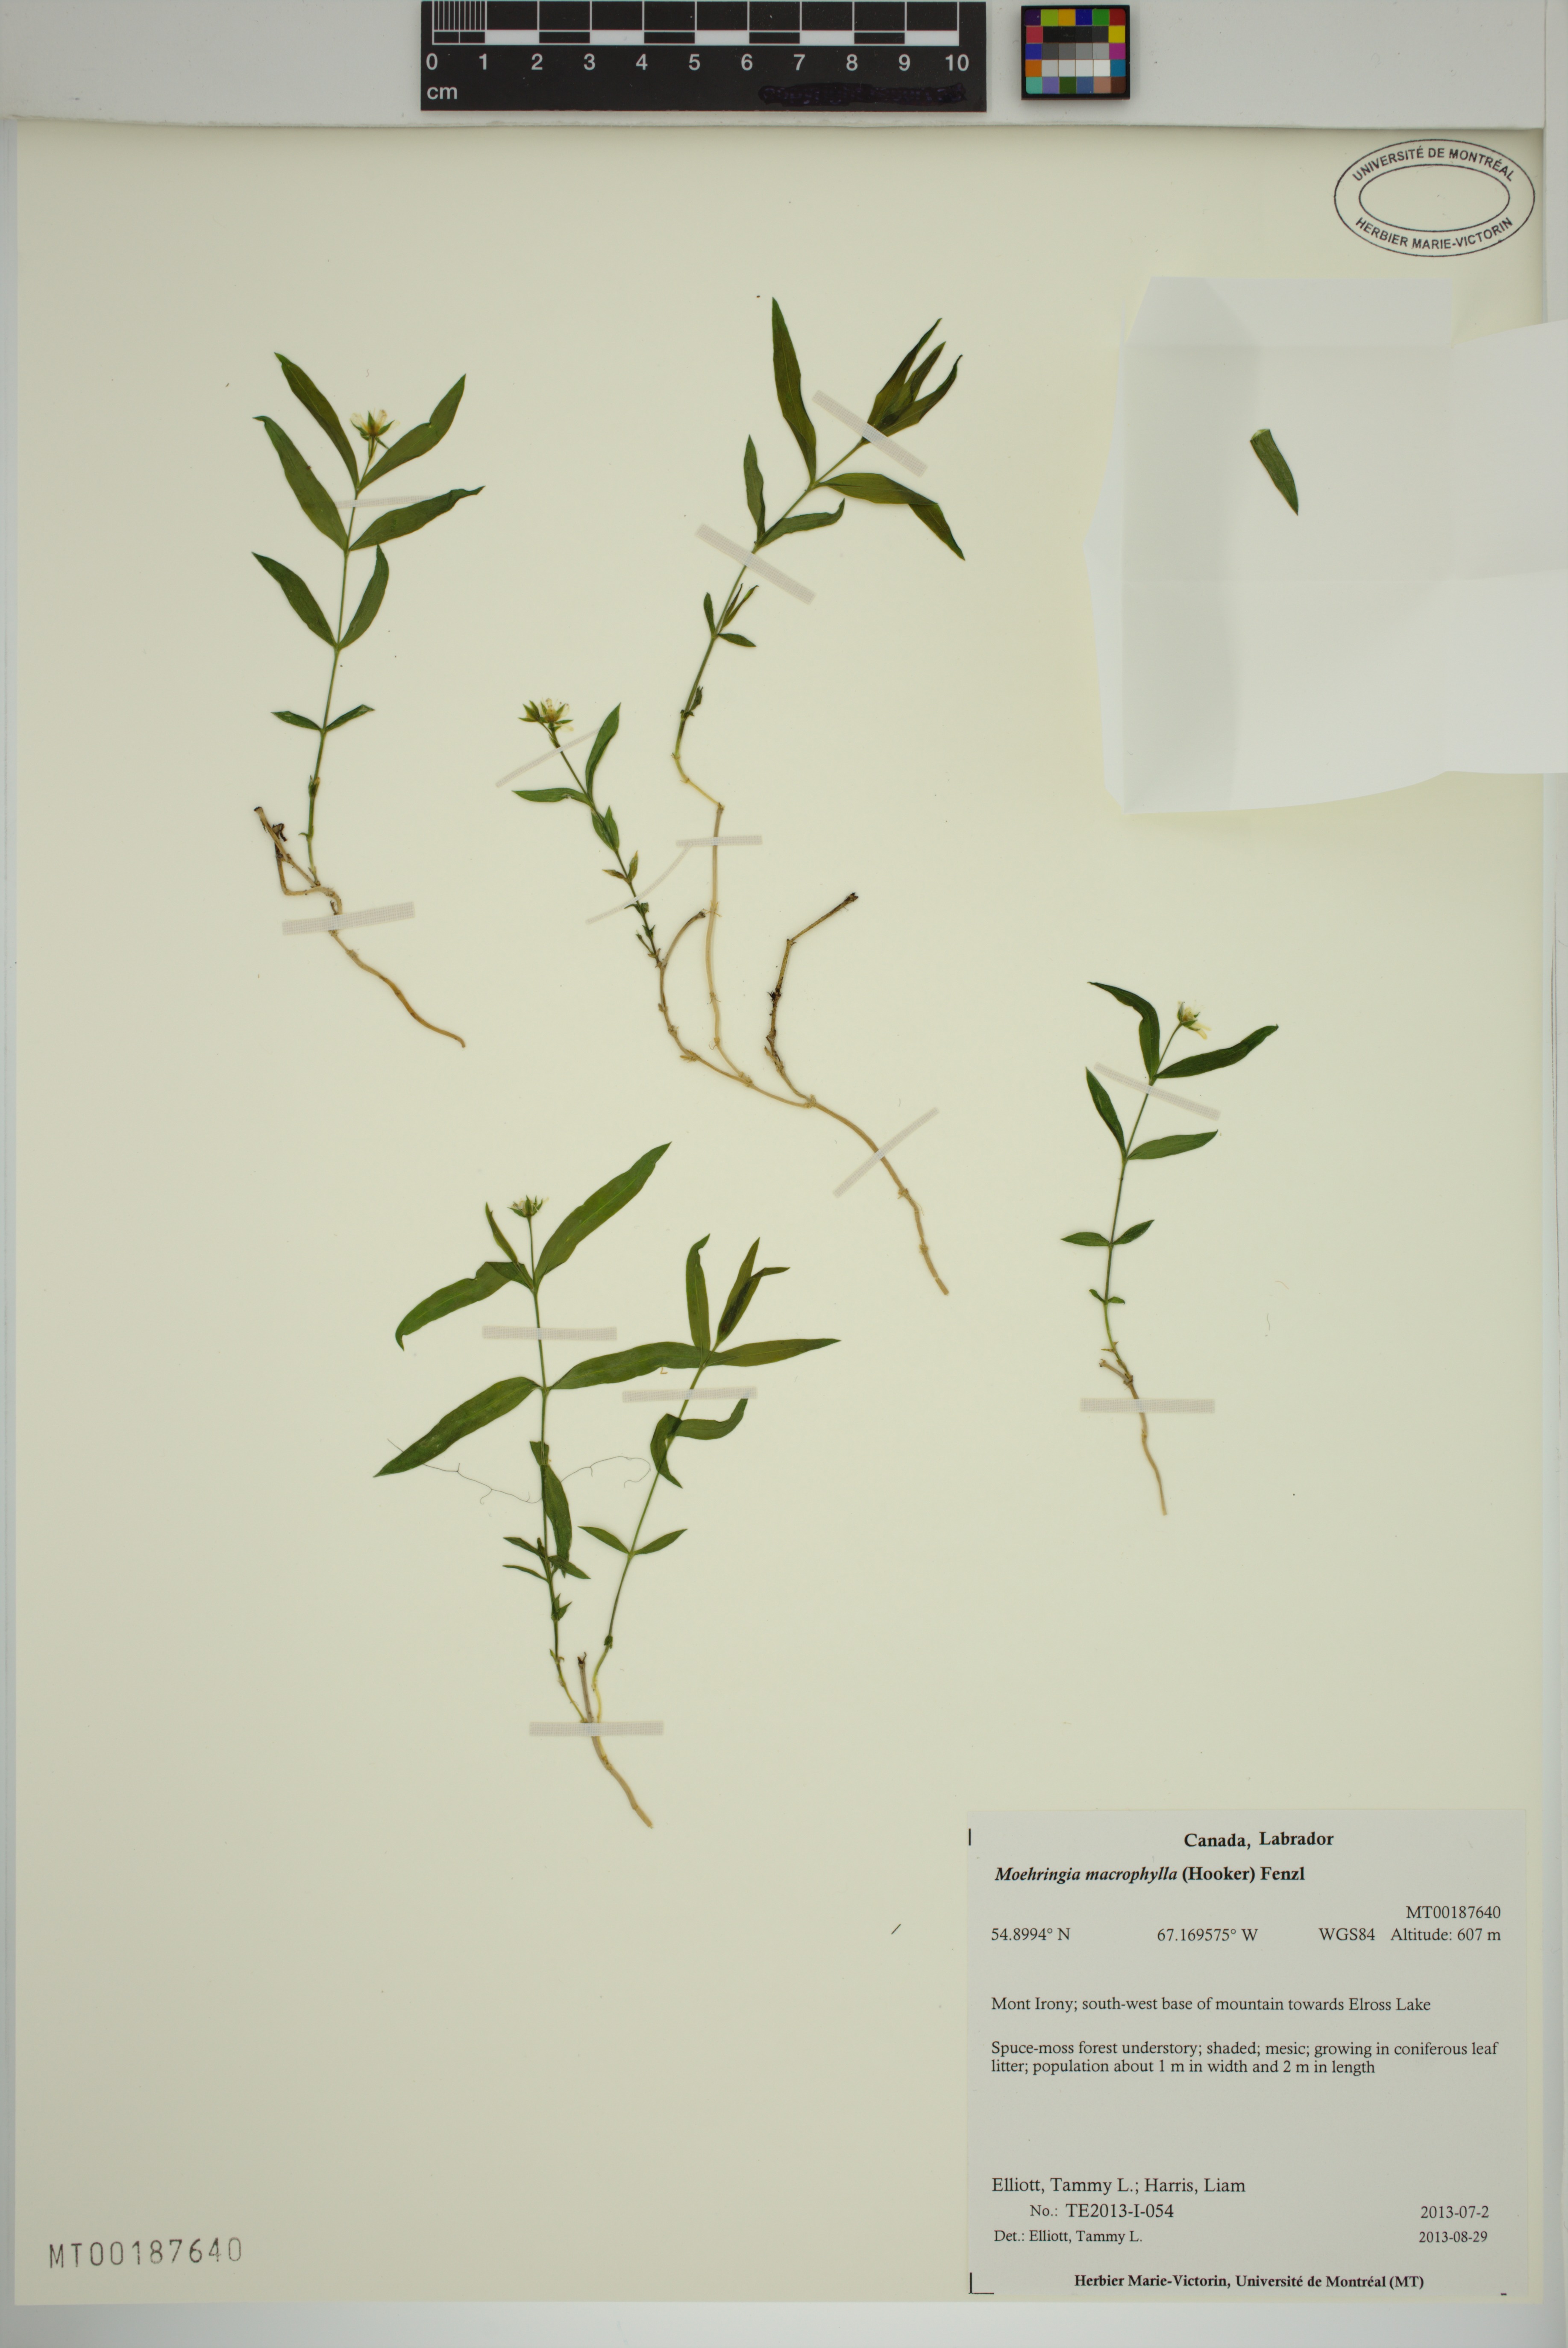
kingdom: Plantae
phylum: Tracheophyta
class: Magnoliopsida
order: Caryophyllales
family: Caryophyllaceae
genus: Moehringia
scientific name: Moehringia macrophylla
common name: Big-leaf sandwort
